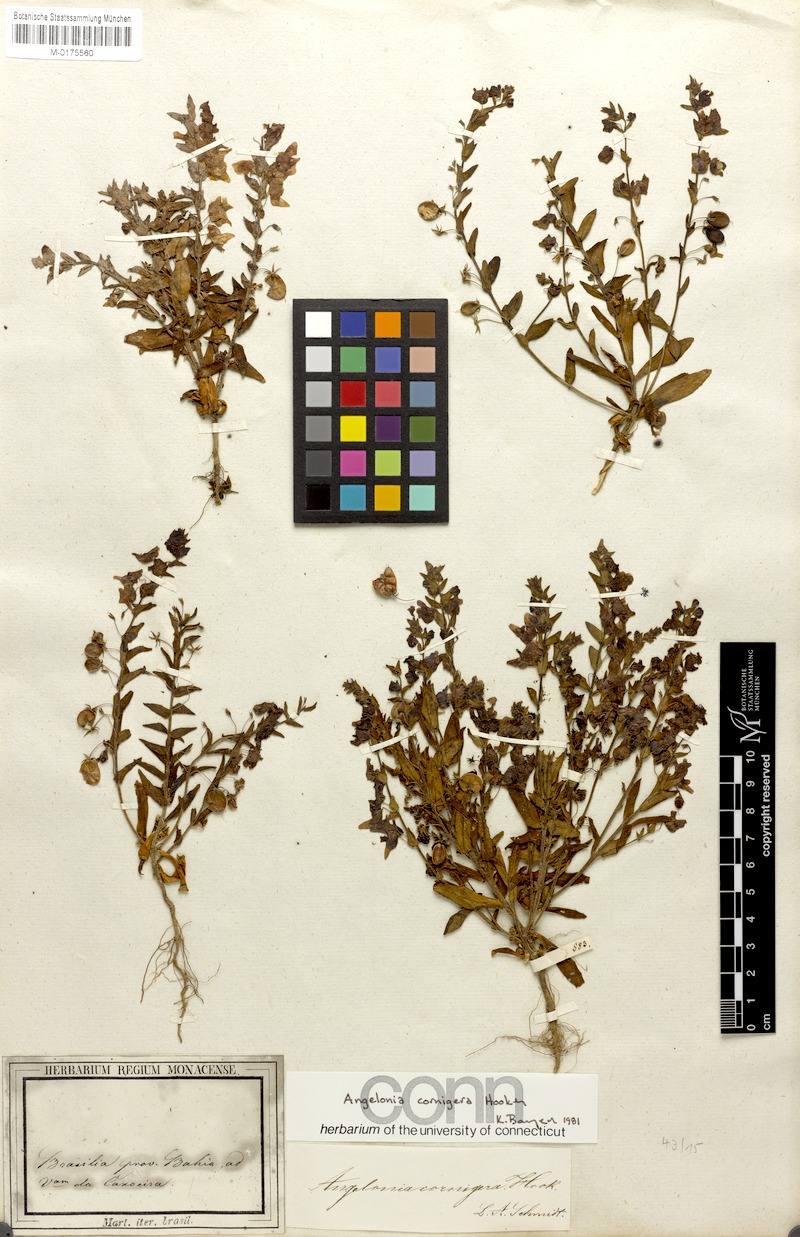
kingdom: Plantae
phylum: Tracheophyta
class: Magnoliopsida
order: Lamiales
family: Plantaginaceae
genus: Angelonia
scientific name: Angelonia cornigera
